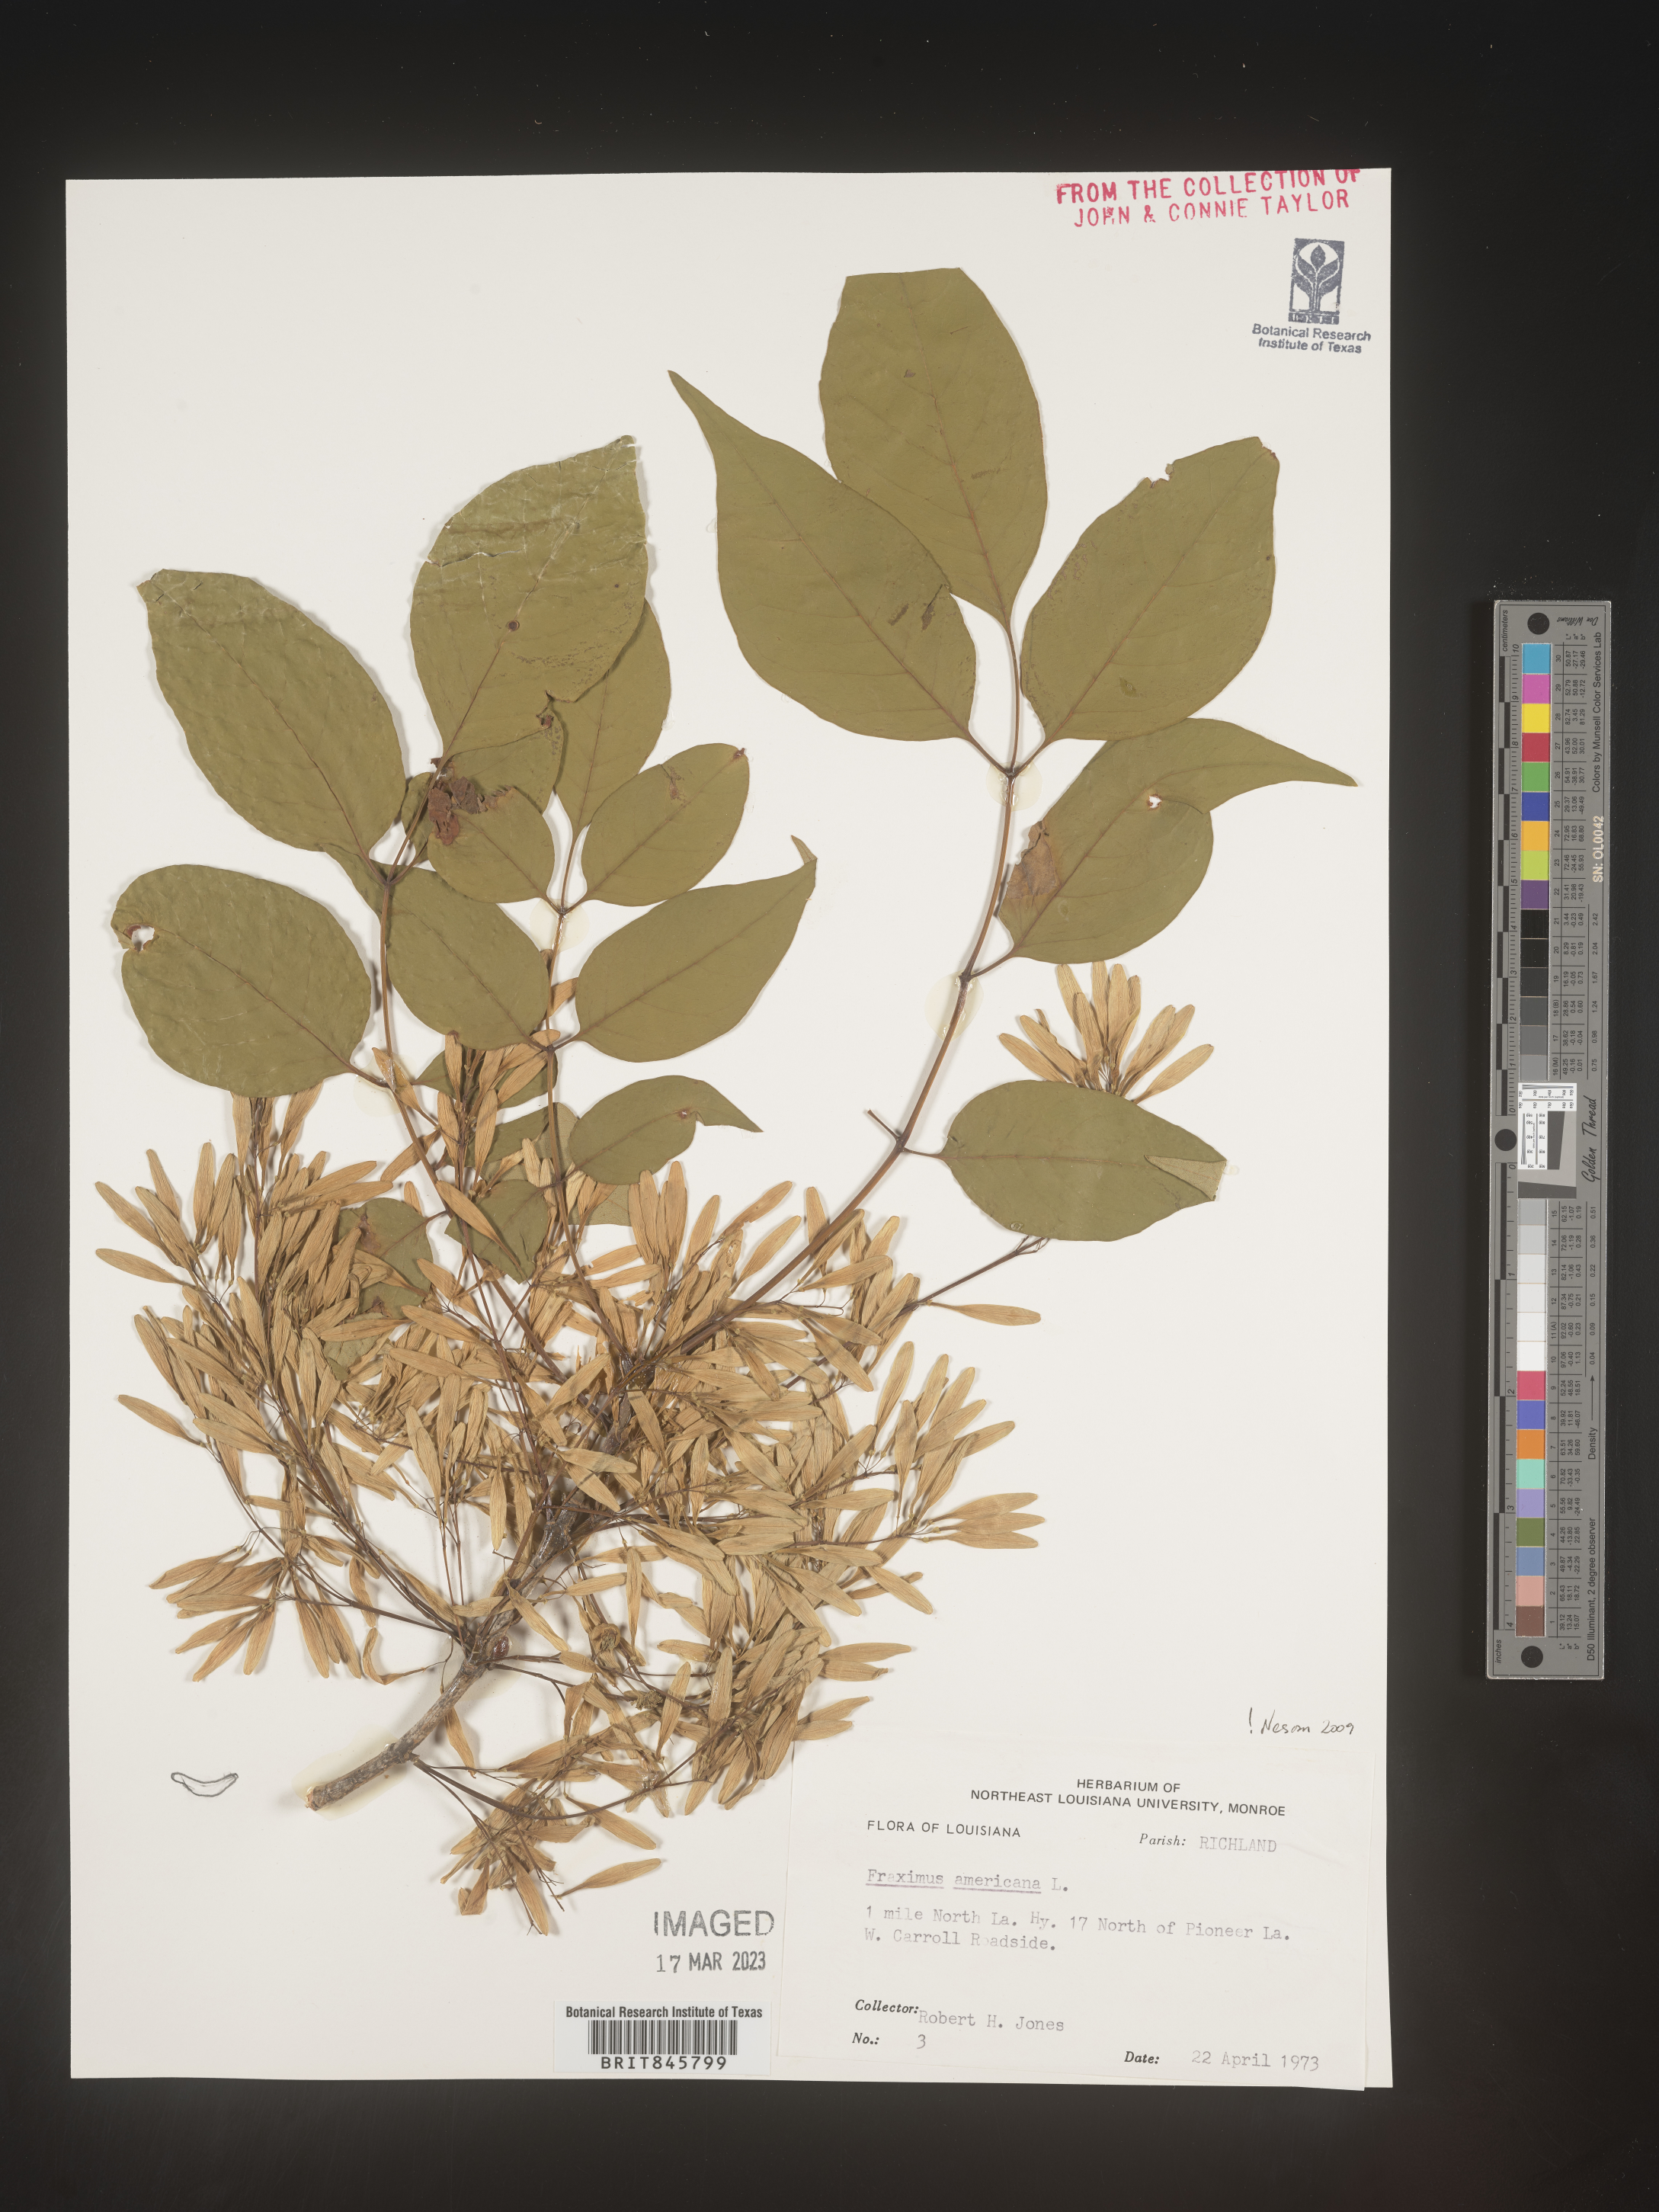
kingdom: Plantae
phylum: Tracheophyta
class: Magnoliopsida
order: Lamiales
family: Oleaceae
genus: Fraxinus
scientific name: Fraxinus americana
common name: White ash
